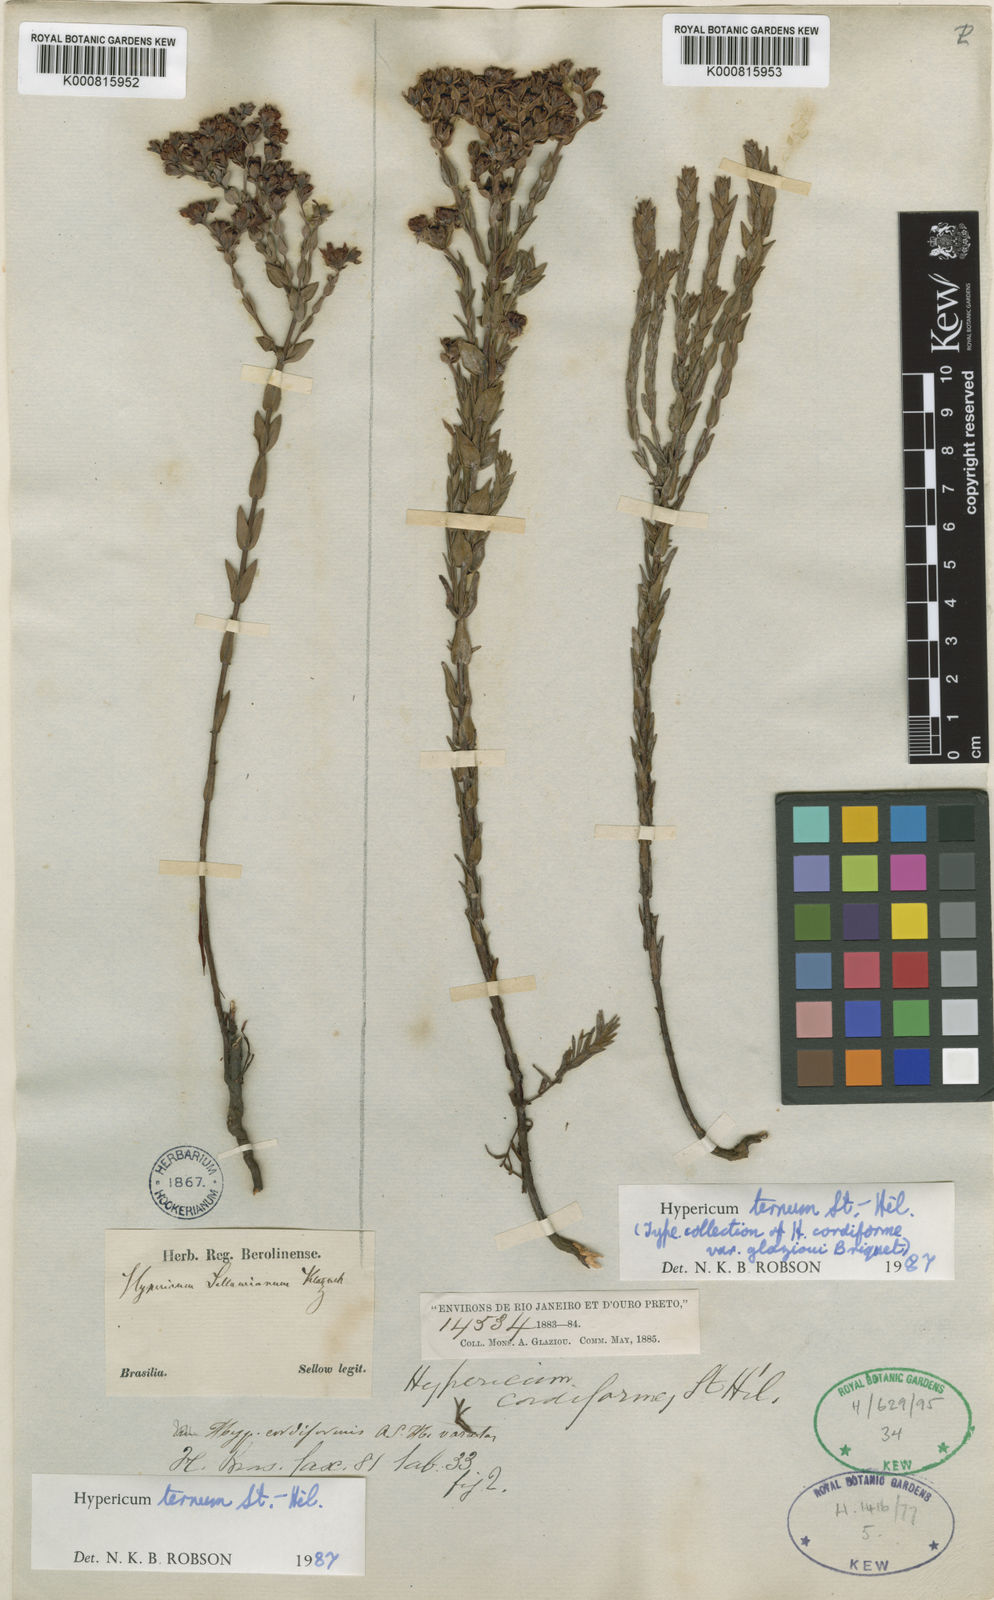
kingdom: Plantae
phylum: Tracheophyta
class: Magnoliopsida
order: Malpighiales
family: Hypericaceae
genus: Hypericum
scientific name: Hypericum ternum
